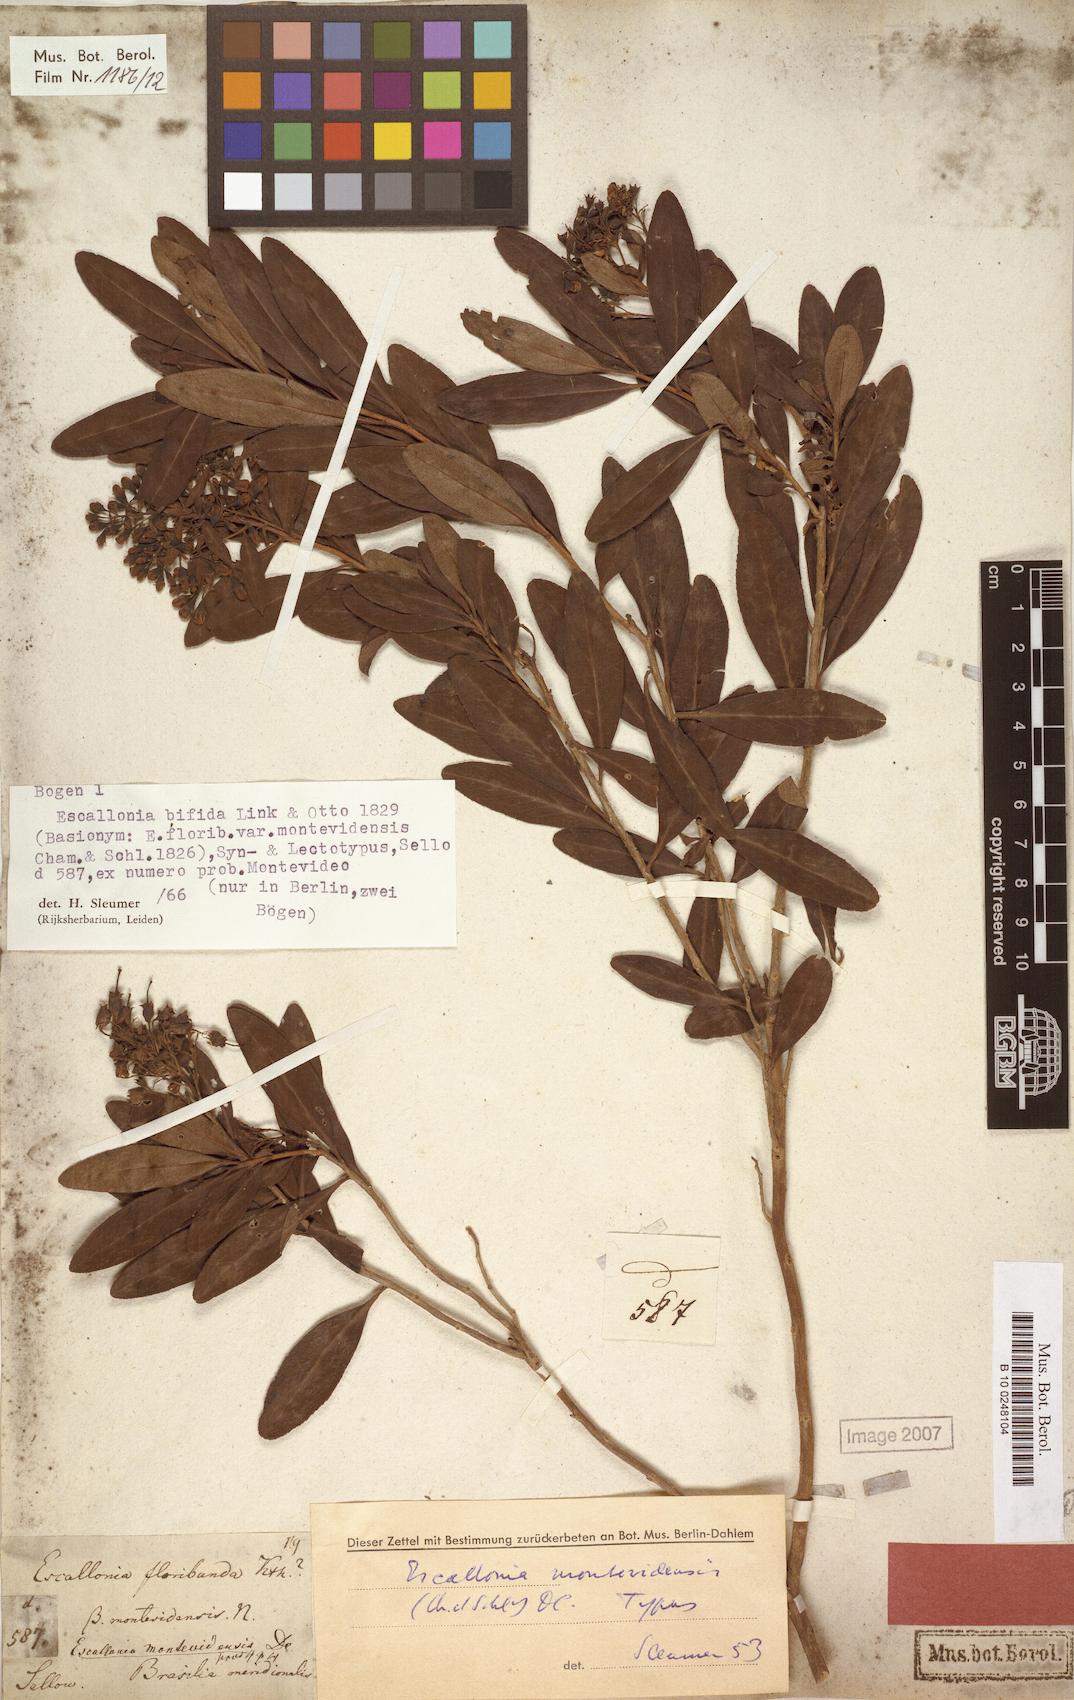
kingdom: Plantae
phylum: Tracheophyta
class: Magnoliopsida
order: Escalloniales
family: Escalloniaceae
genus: Escallonia
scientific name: Escallonia bifida
